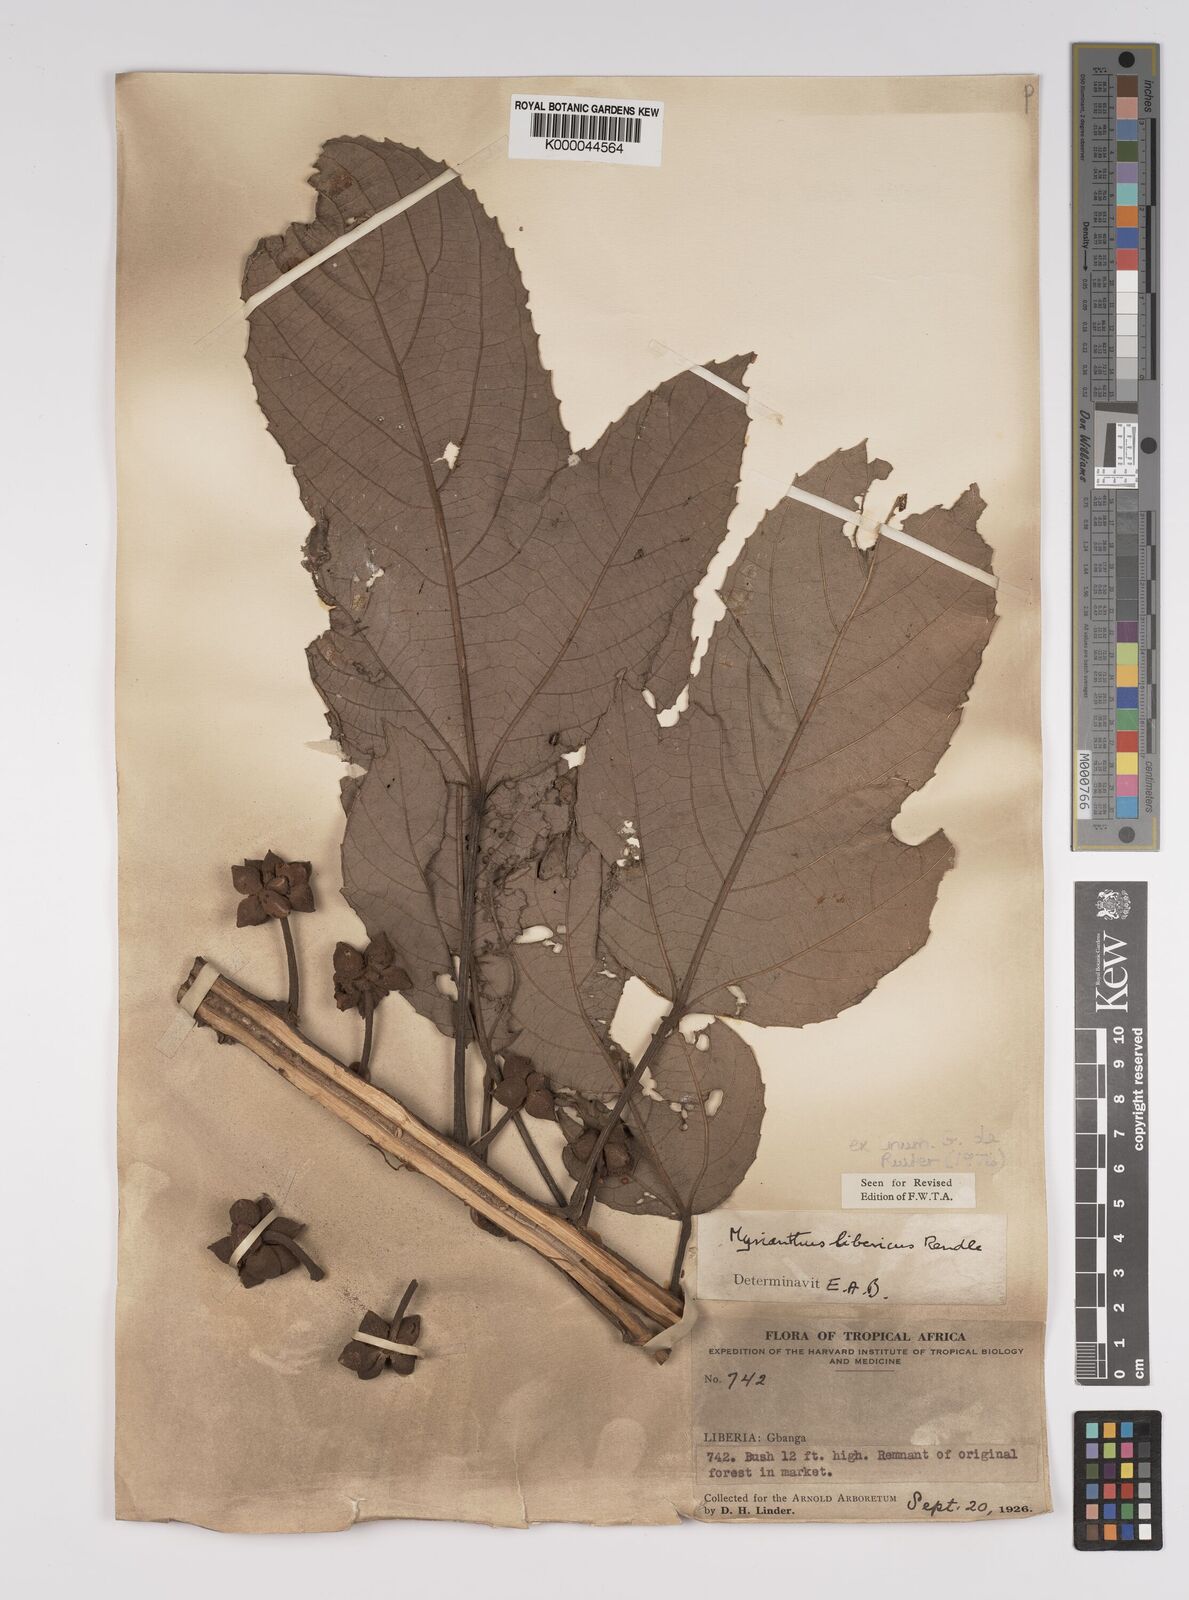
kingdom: Plantae
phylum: Tracheophyta
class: Magnoliopsida
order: Rosales
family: Urticaceae
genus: Myrianthus
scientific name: Myrianthus libericus
